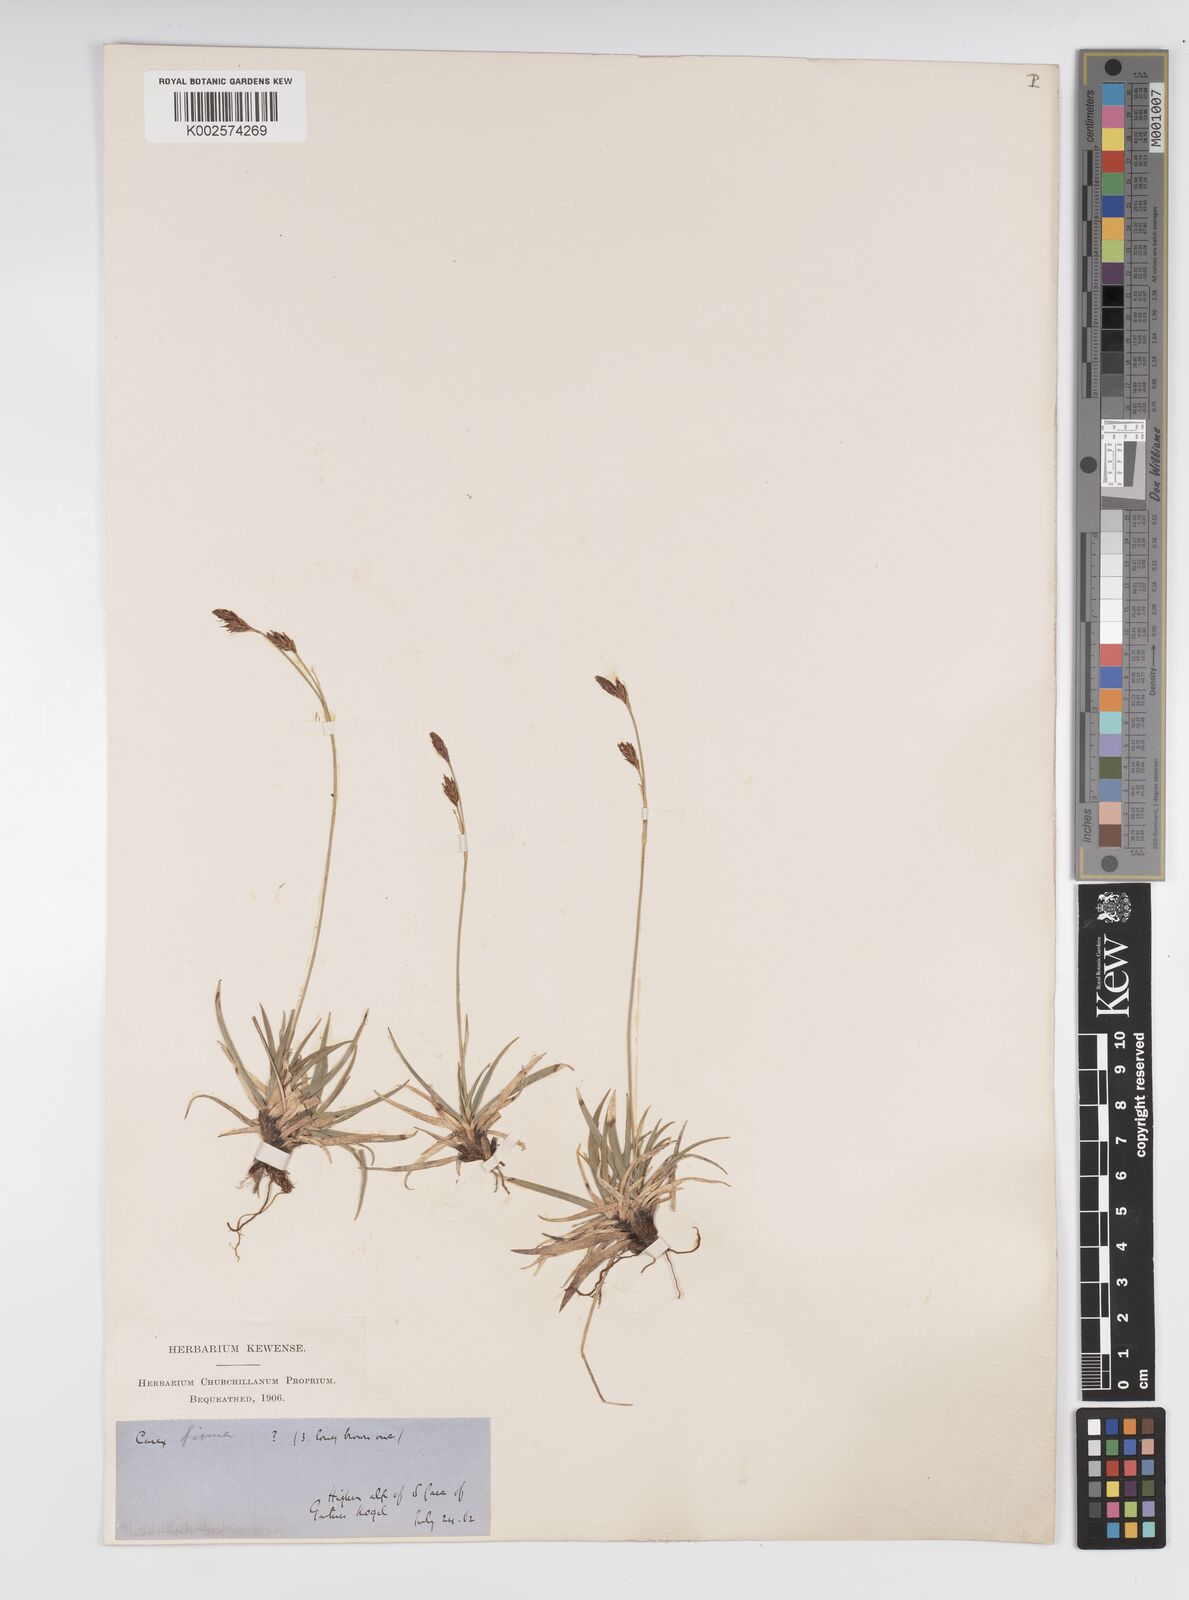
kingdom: Plantae
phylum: Tracheophyta
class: Liliopsida
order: Poales
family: Cyperaceae
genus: Carex
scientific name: Carex frigida
